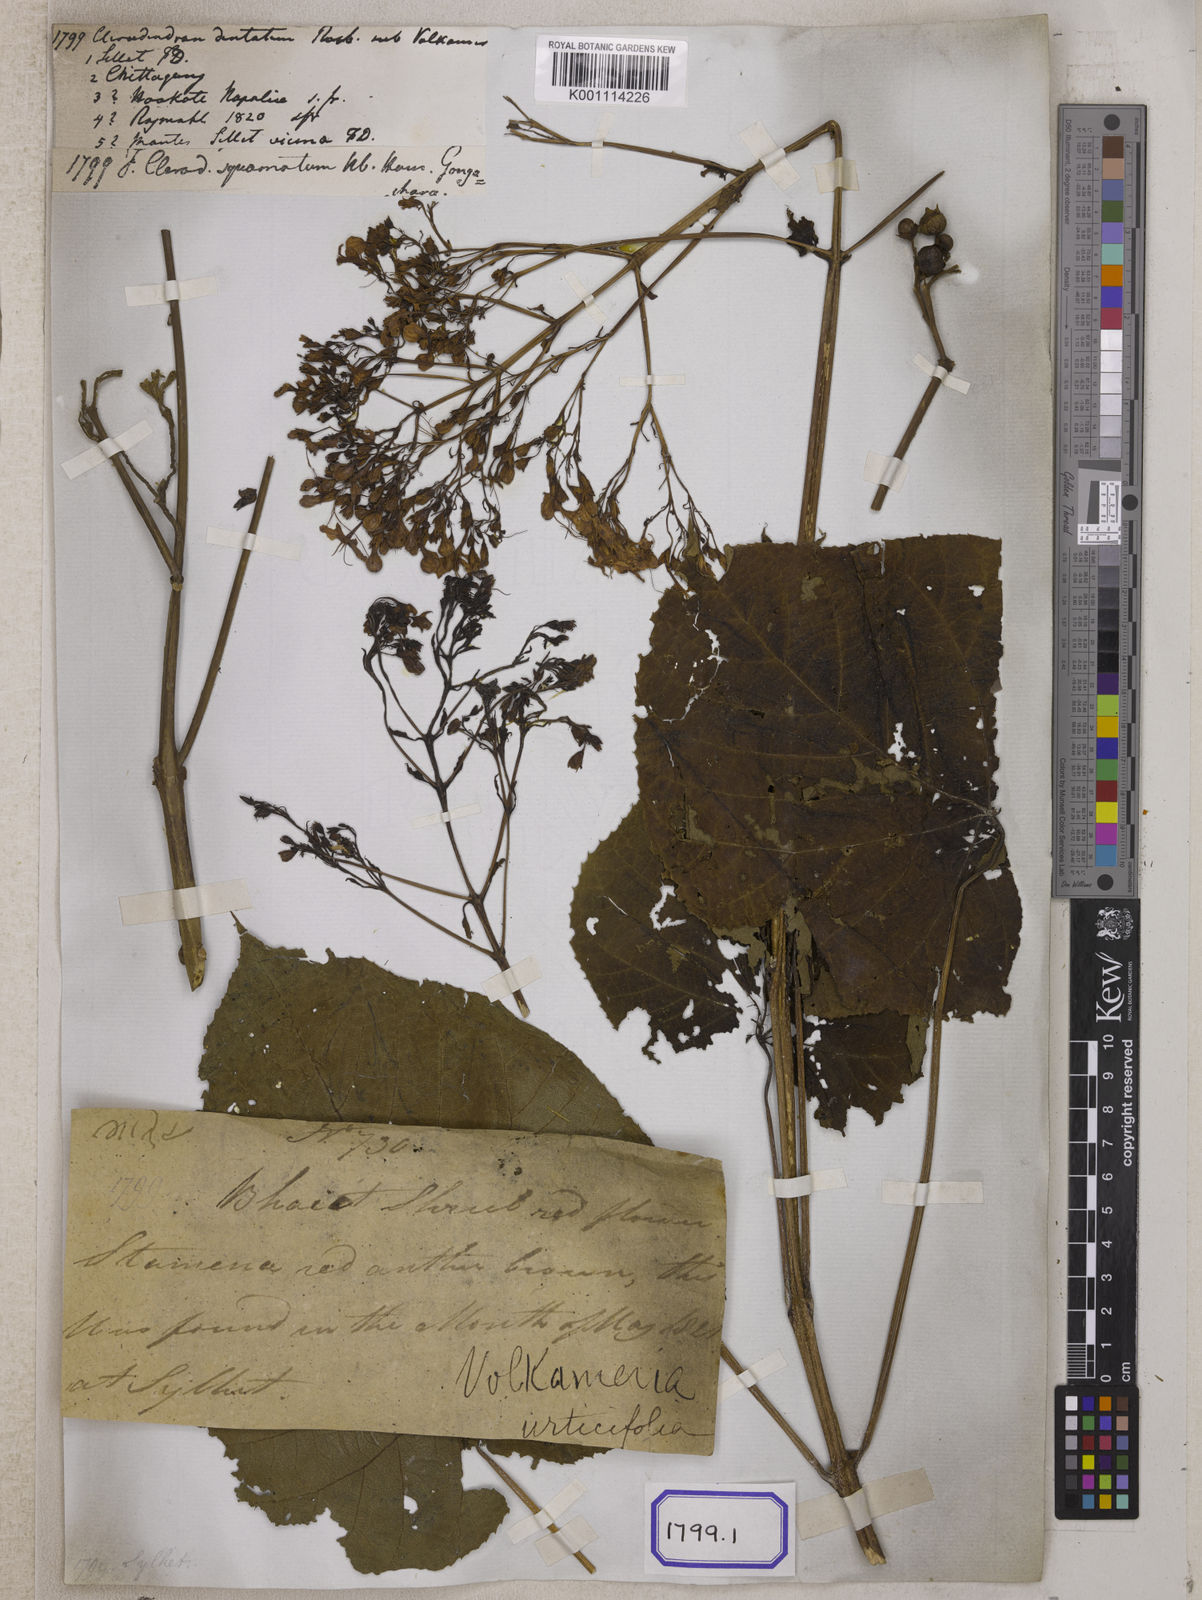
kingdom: Plantae
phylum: Tracheophyta
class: Magnoliopsida
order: Lamiales
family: Lamiaceae
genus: Clerodendrum
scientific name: Clerodendrum japonicum
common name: Japanese glorybower
